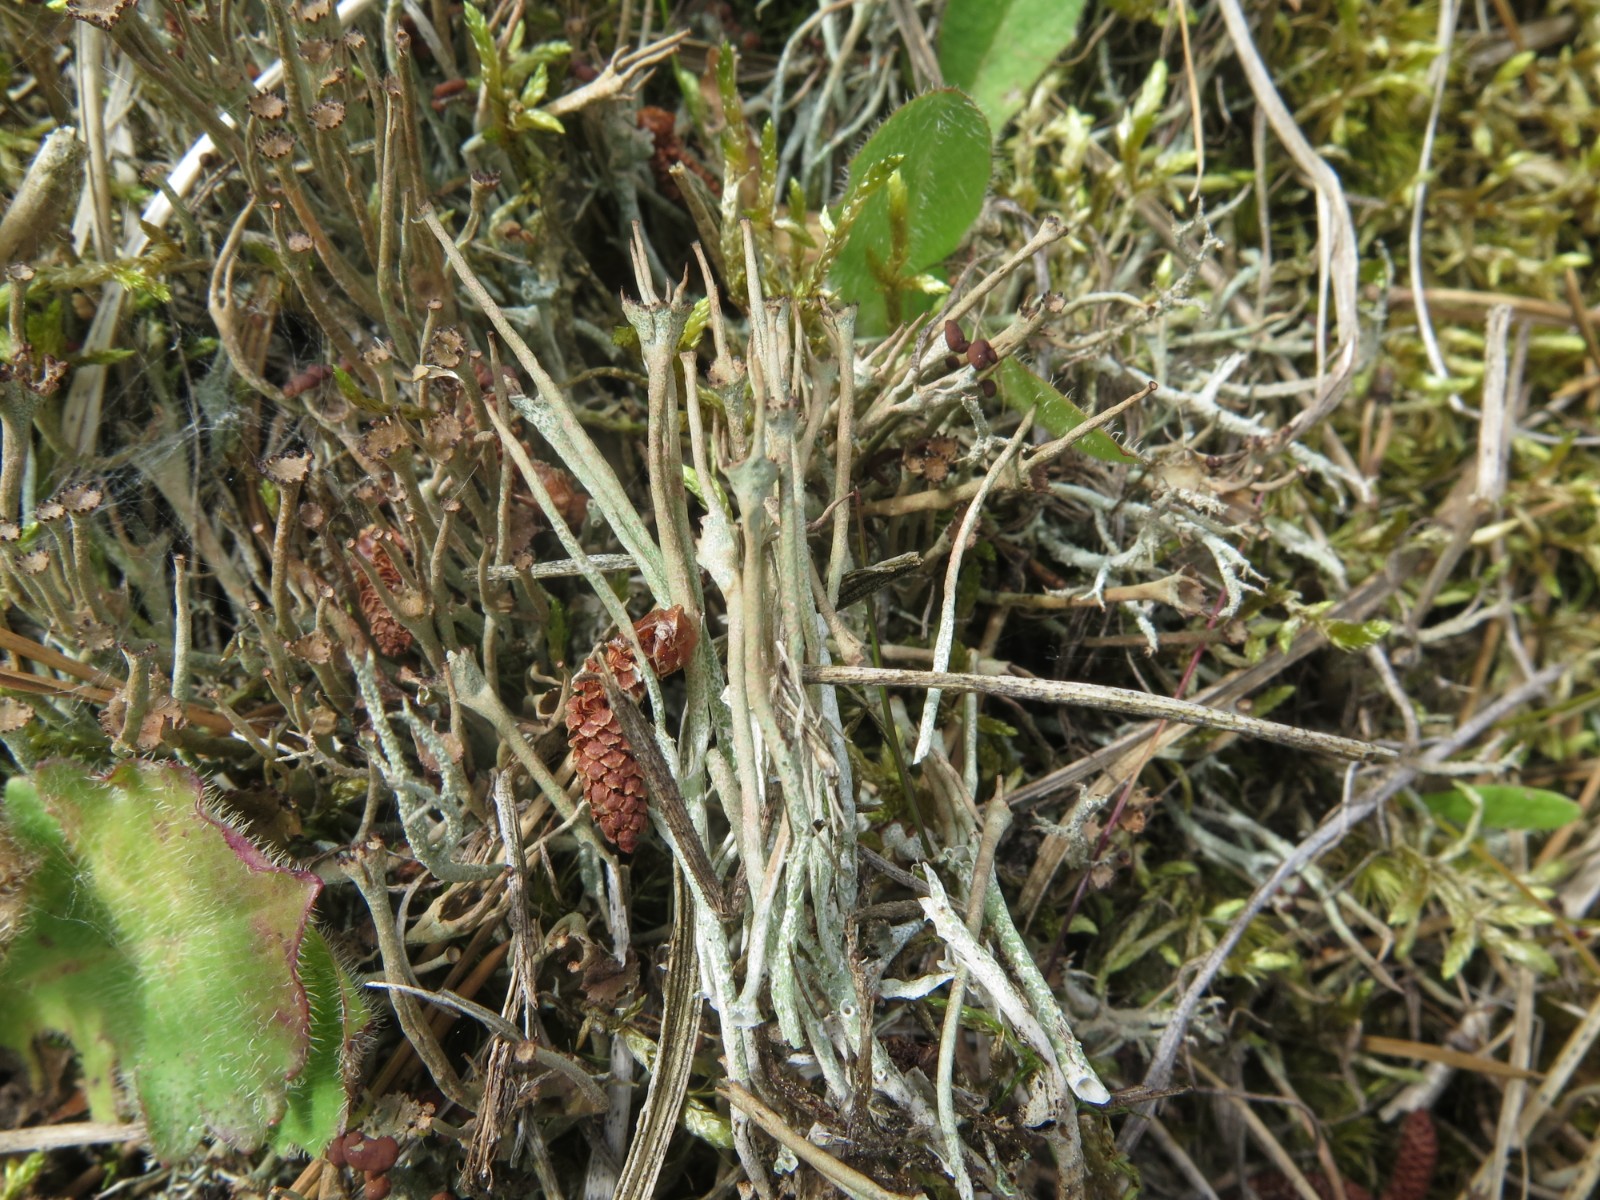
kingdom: Fungi
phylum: Ascomycota
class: Lecanoromycetes
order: Lecanorales
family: Cladoniaceae
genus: Cladonia
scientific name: Cladonia gracilis
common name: slank bægerlav
